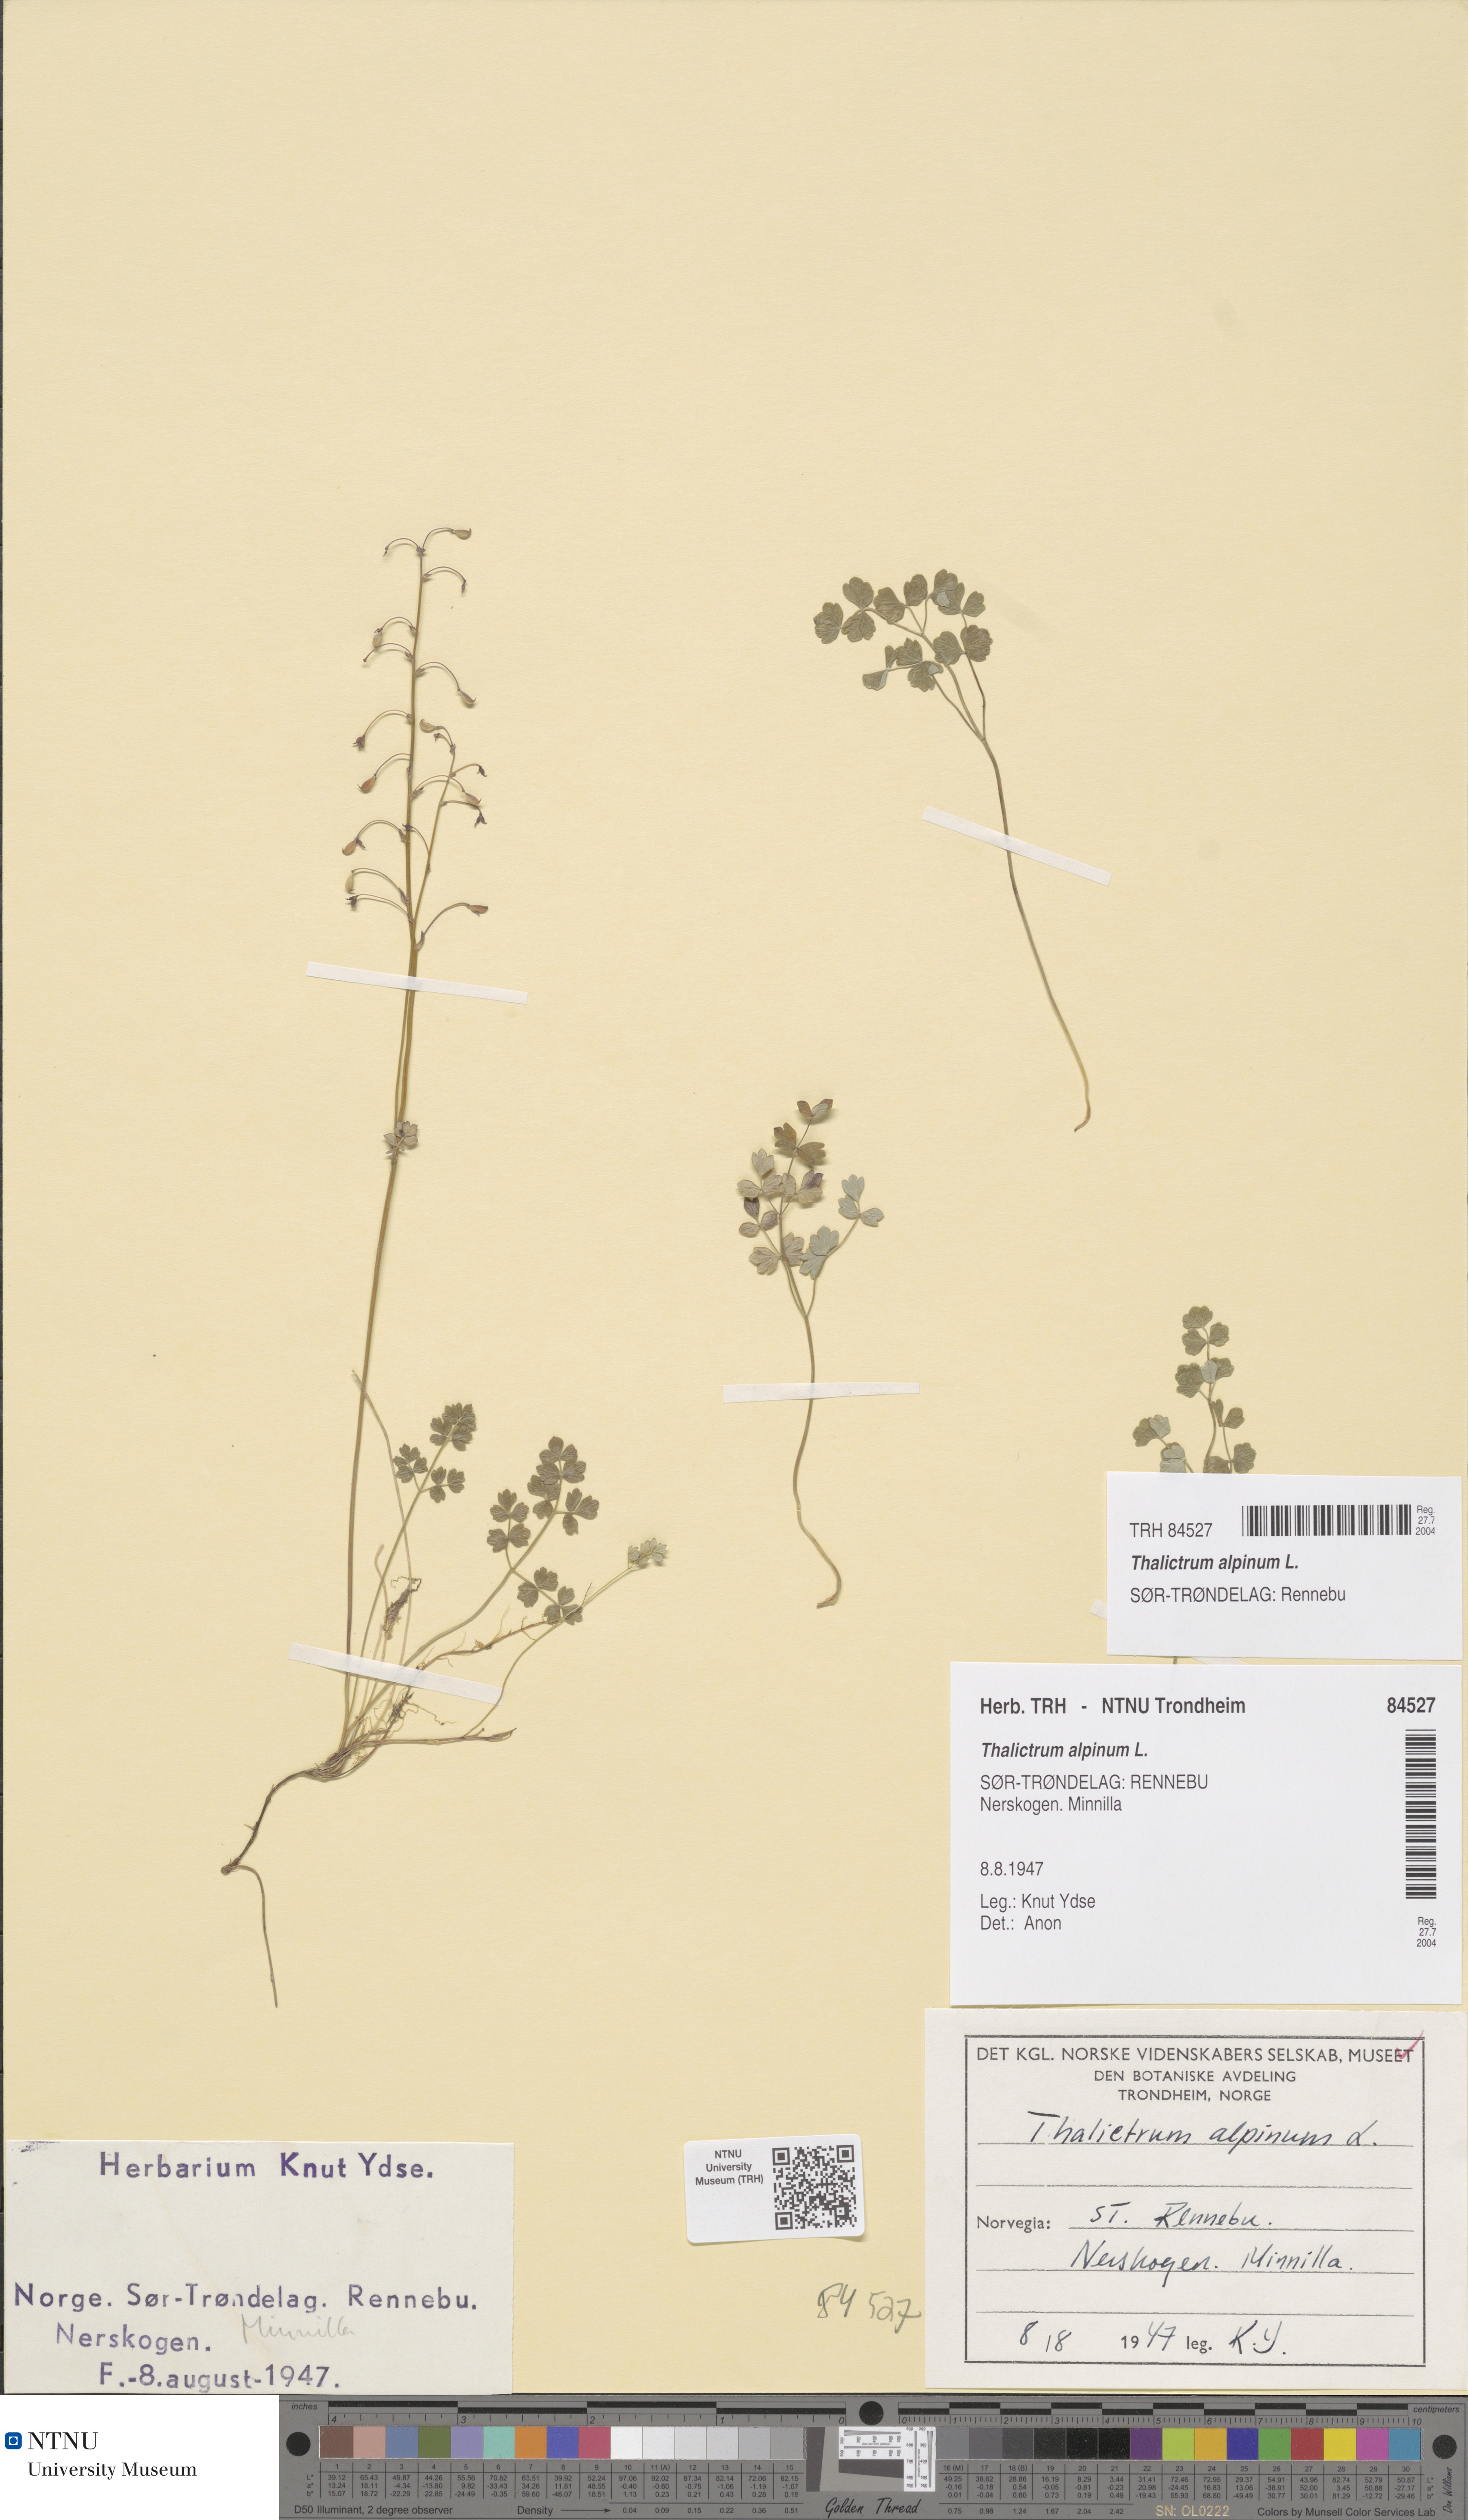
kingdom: Plantae
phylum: Tracheophyta
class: Magnoliopsida
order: Ranunculales
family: Ranunculaceae
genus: Thalictrum
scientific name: Thalictrum alpinum
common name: Alpine meadow-rue
